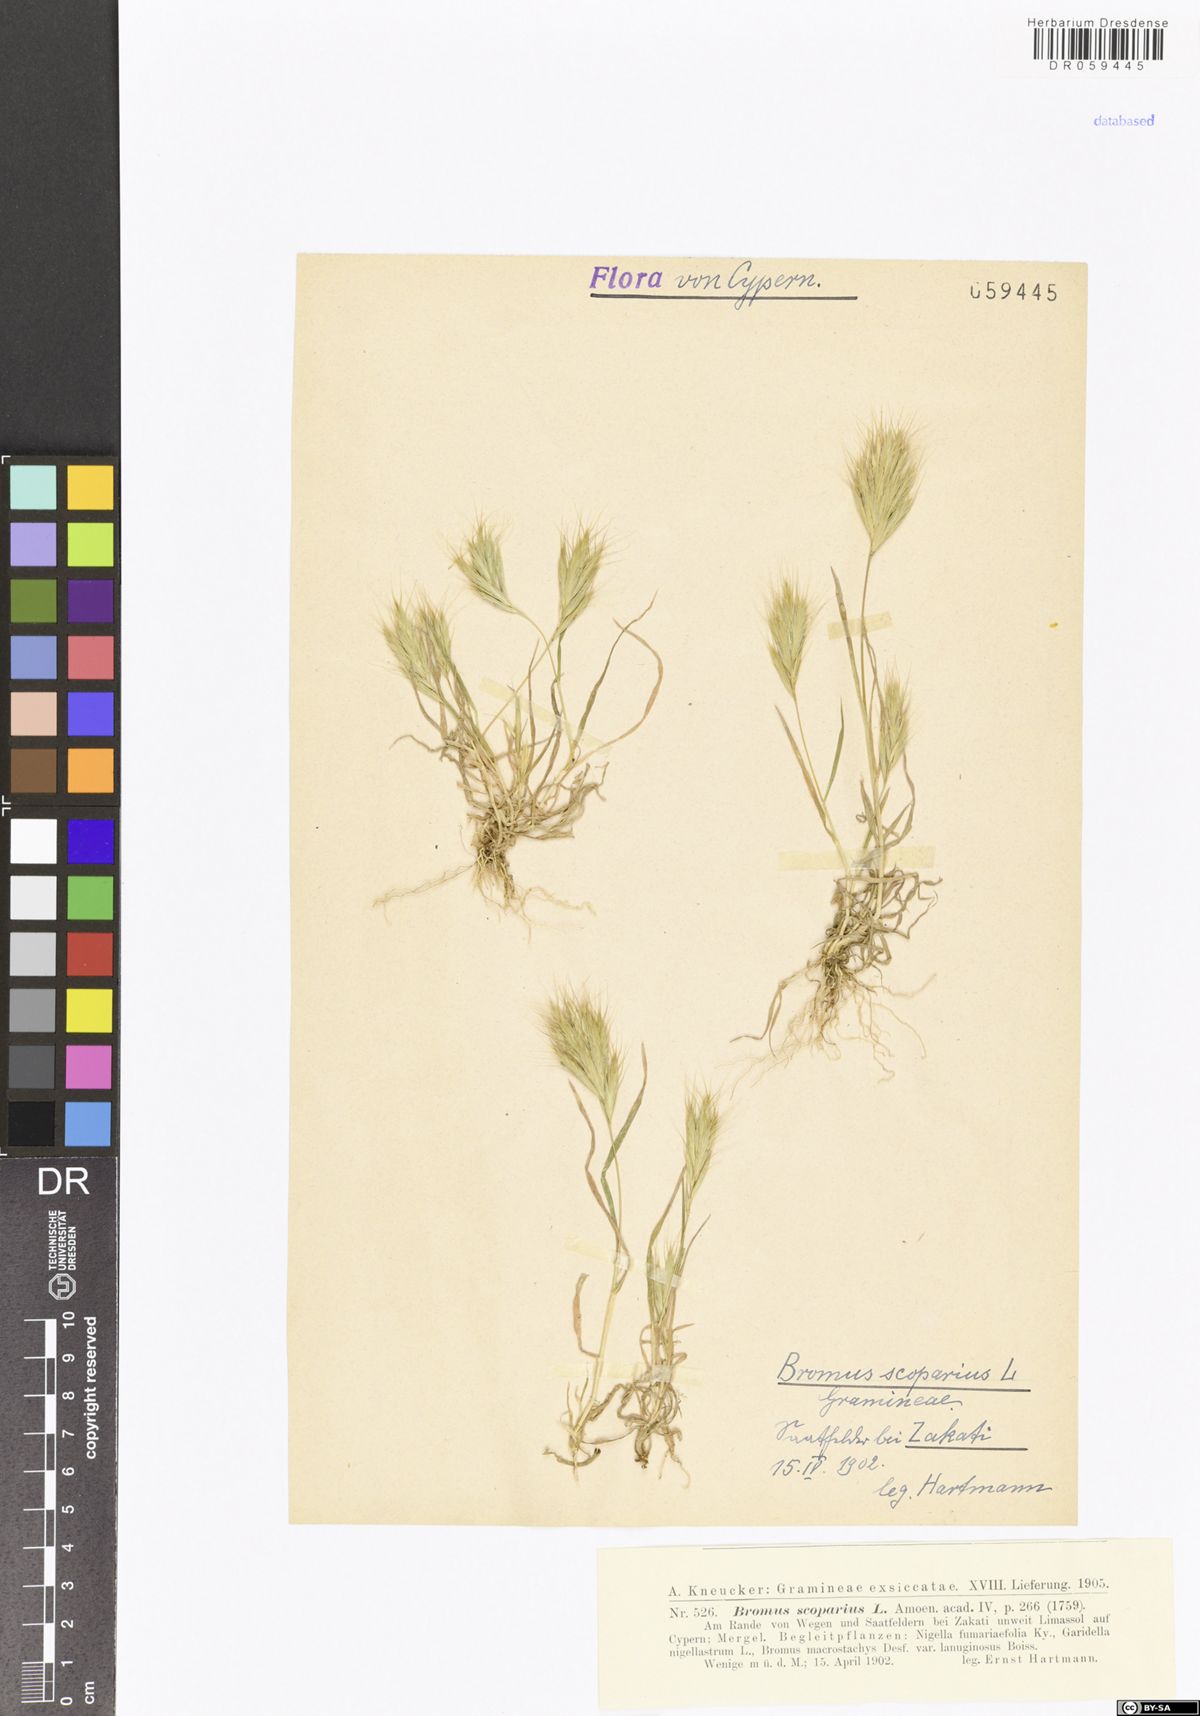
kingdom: Plantae
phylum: Tracheophyta
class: Liliopsida
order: Poales
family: Poaceae
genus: Bromus
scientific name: Bromus scoparius
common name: Broom brome
